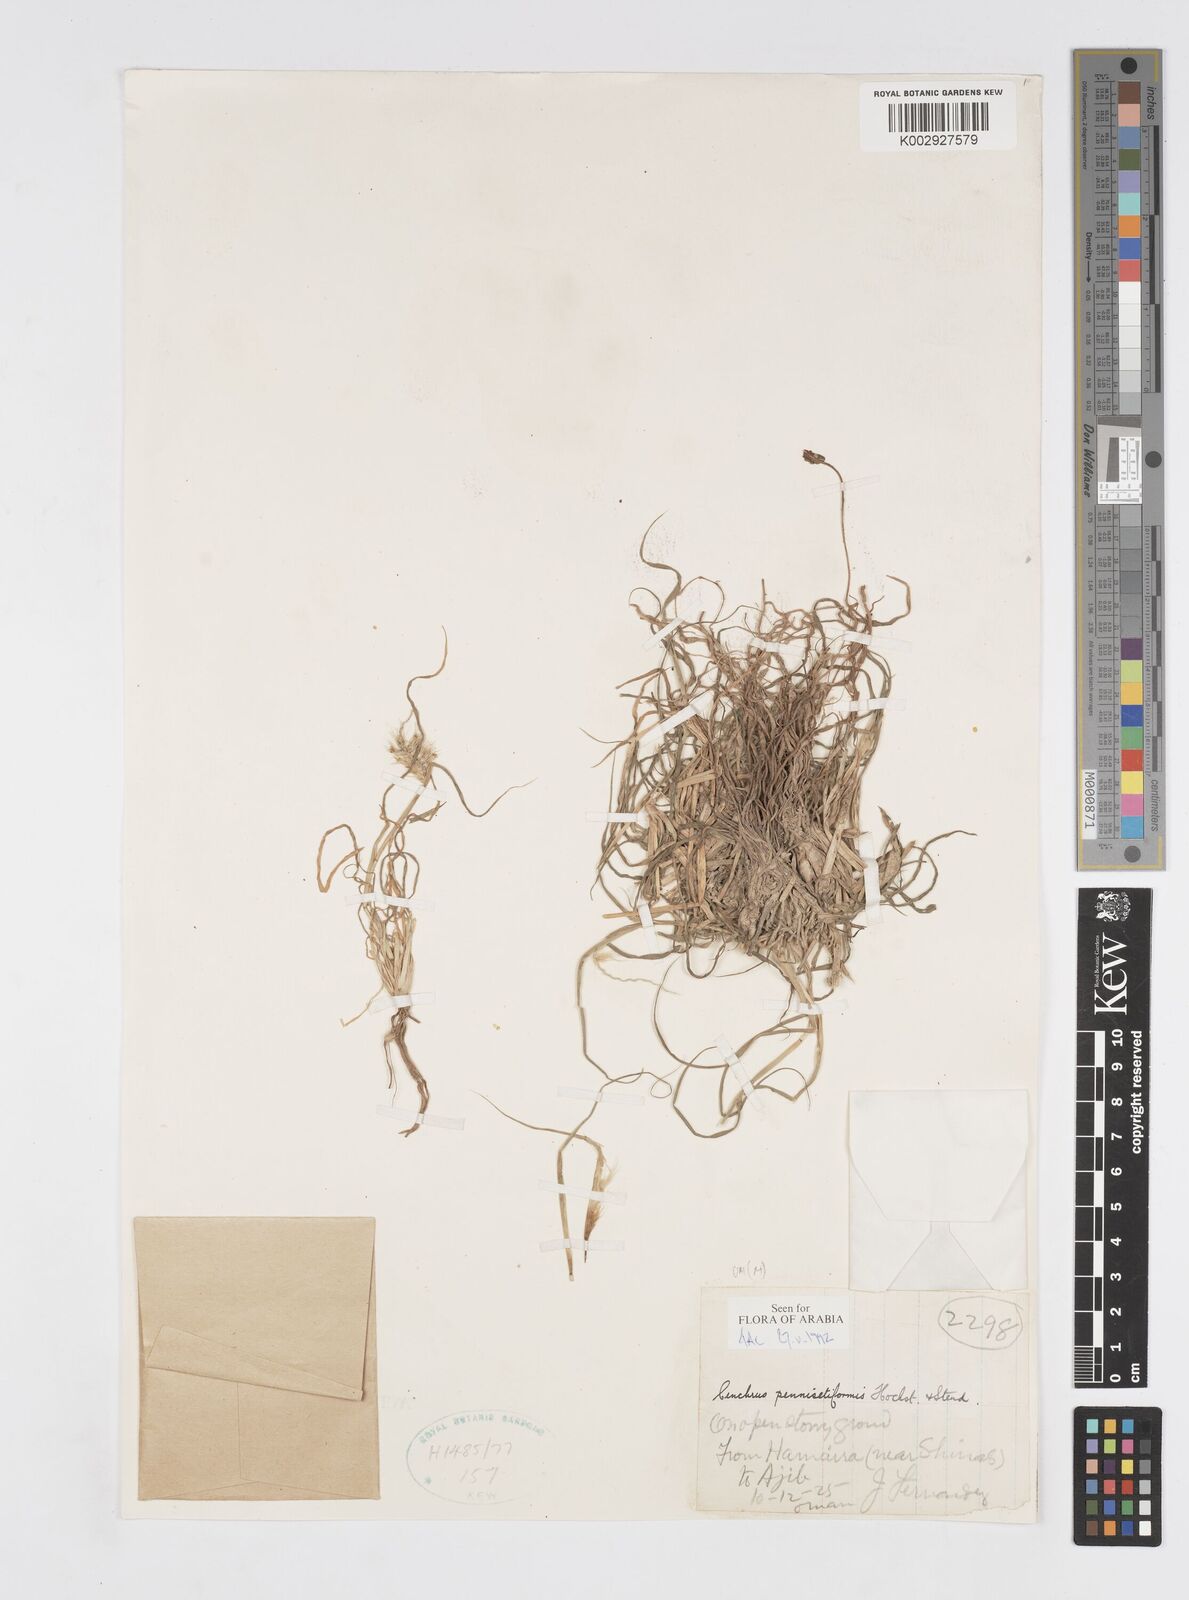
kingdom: Plantae
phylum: Tracheophyta
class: Liliopsida
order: Poales
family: Poaceae
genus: Cenchrus
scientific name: Cenchrus pennisetiformis
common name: Cloncurry
